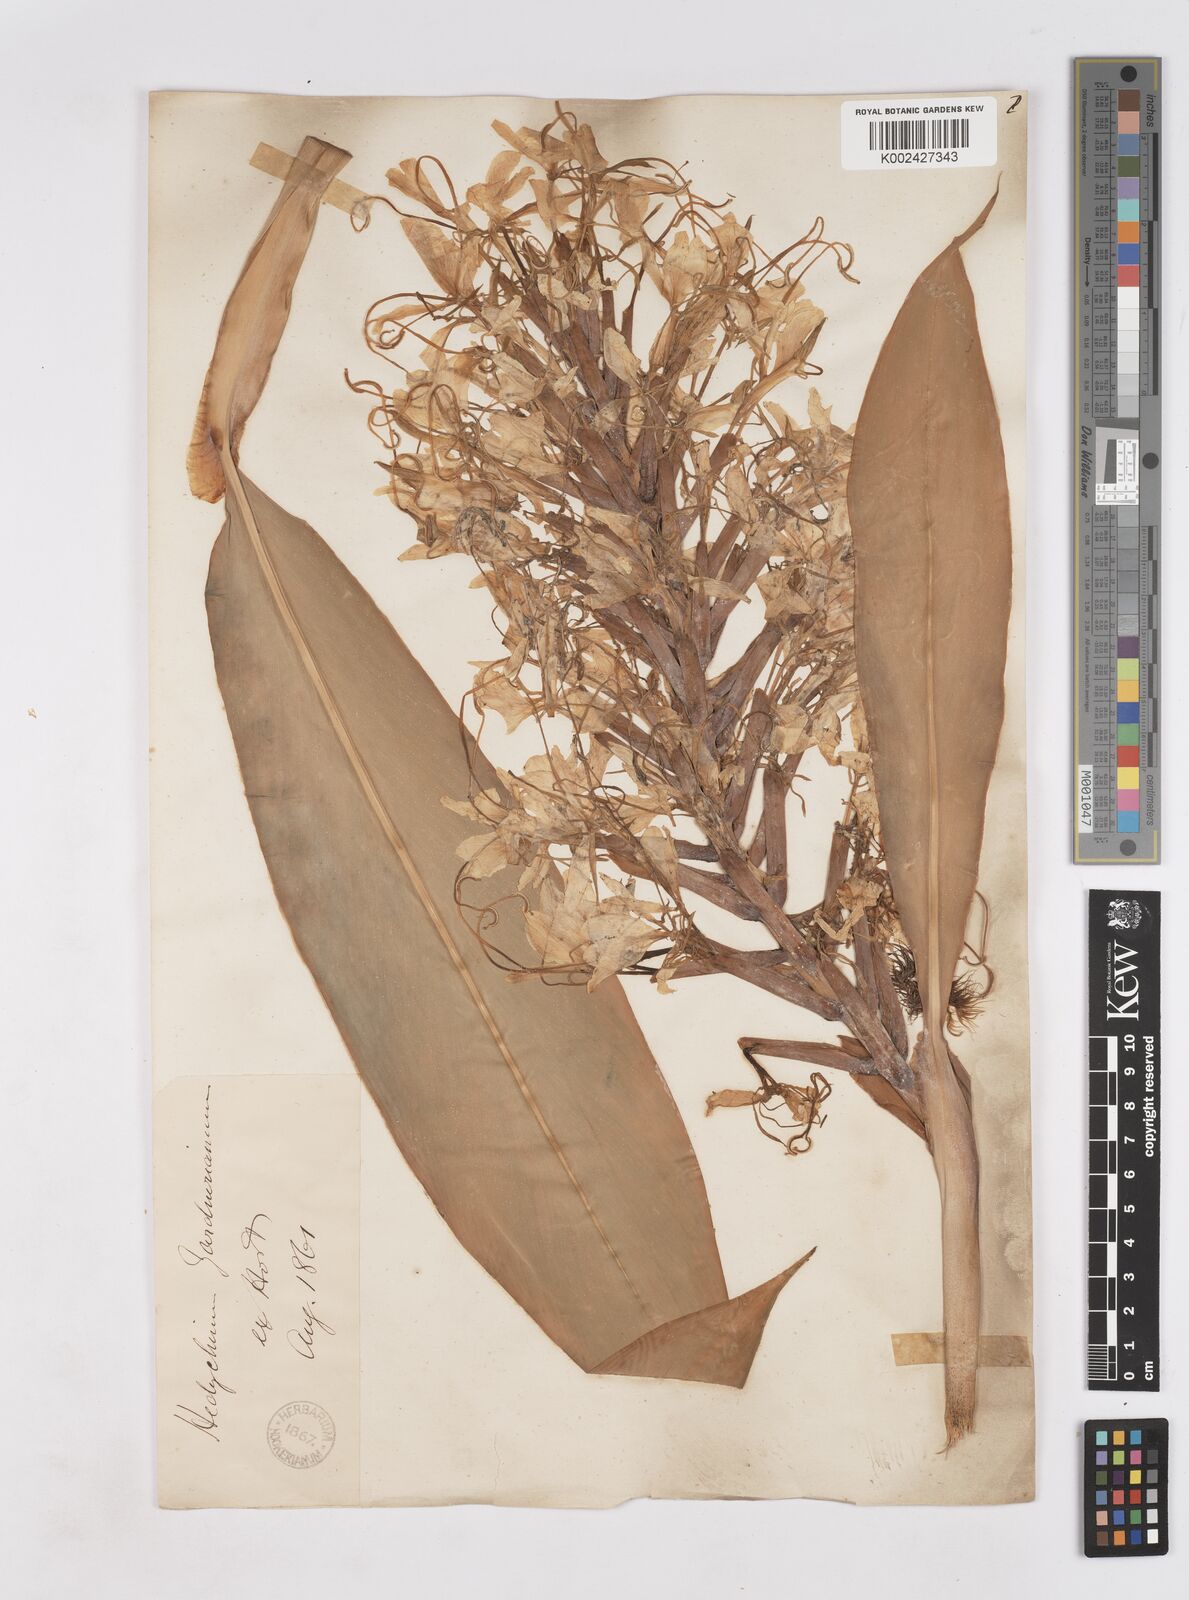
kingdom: Plantae
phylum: Tracheophyta
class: Liliopsida
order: Zingiberales
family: Zingiberaceae
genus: Hedychium
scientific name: Hedychium gardnerianum
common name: Himalayan ginger
